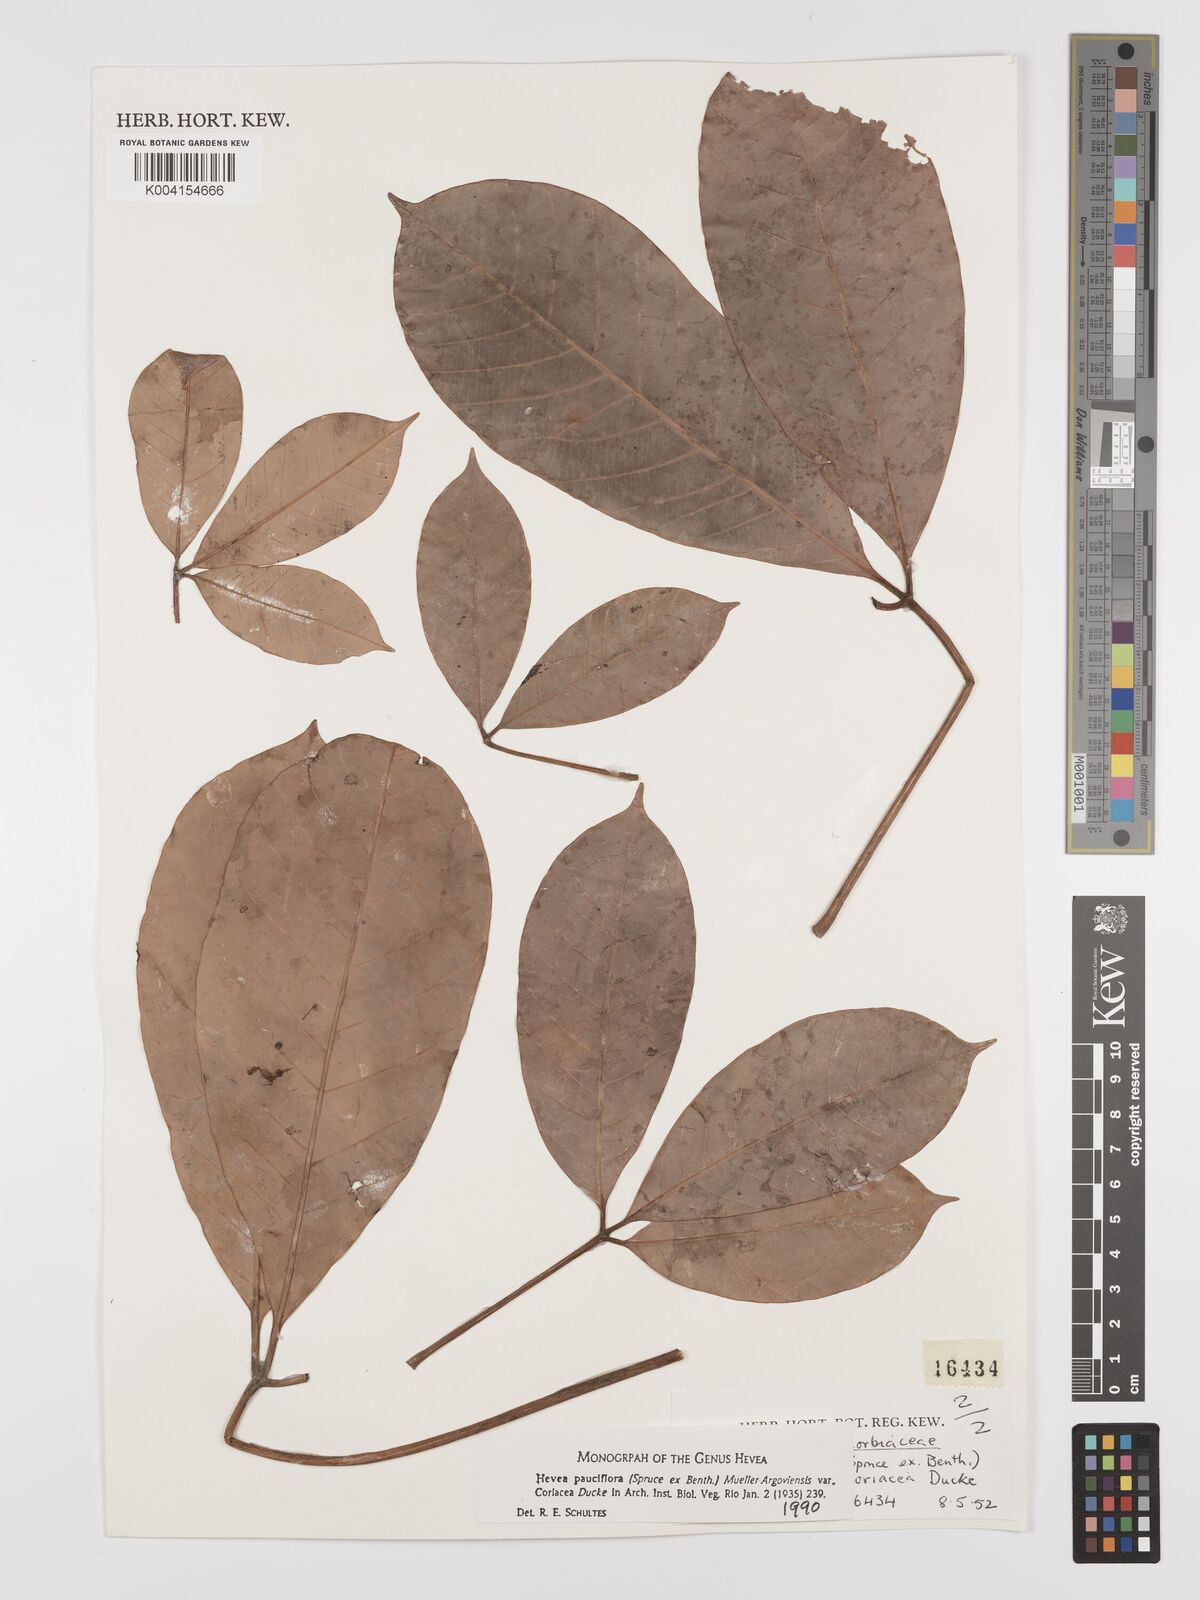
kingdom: Plantae
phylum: Tracheophyta
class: Magnoliopsida
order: Malpighiales
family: Euphorbiaceae
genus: Hevea
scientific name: Hevea pauciflora
